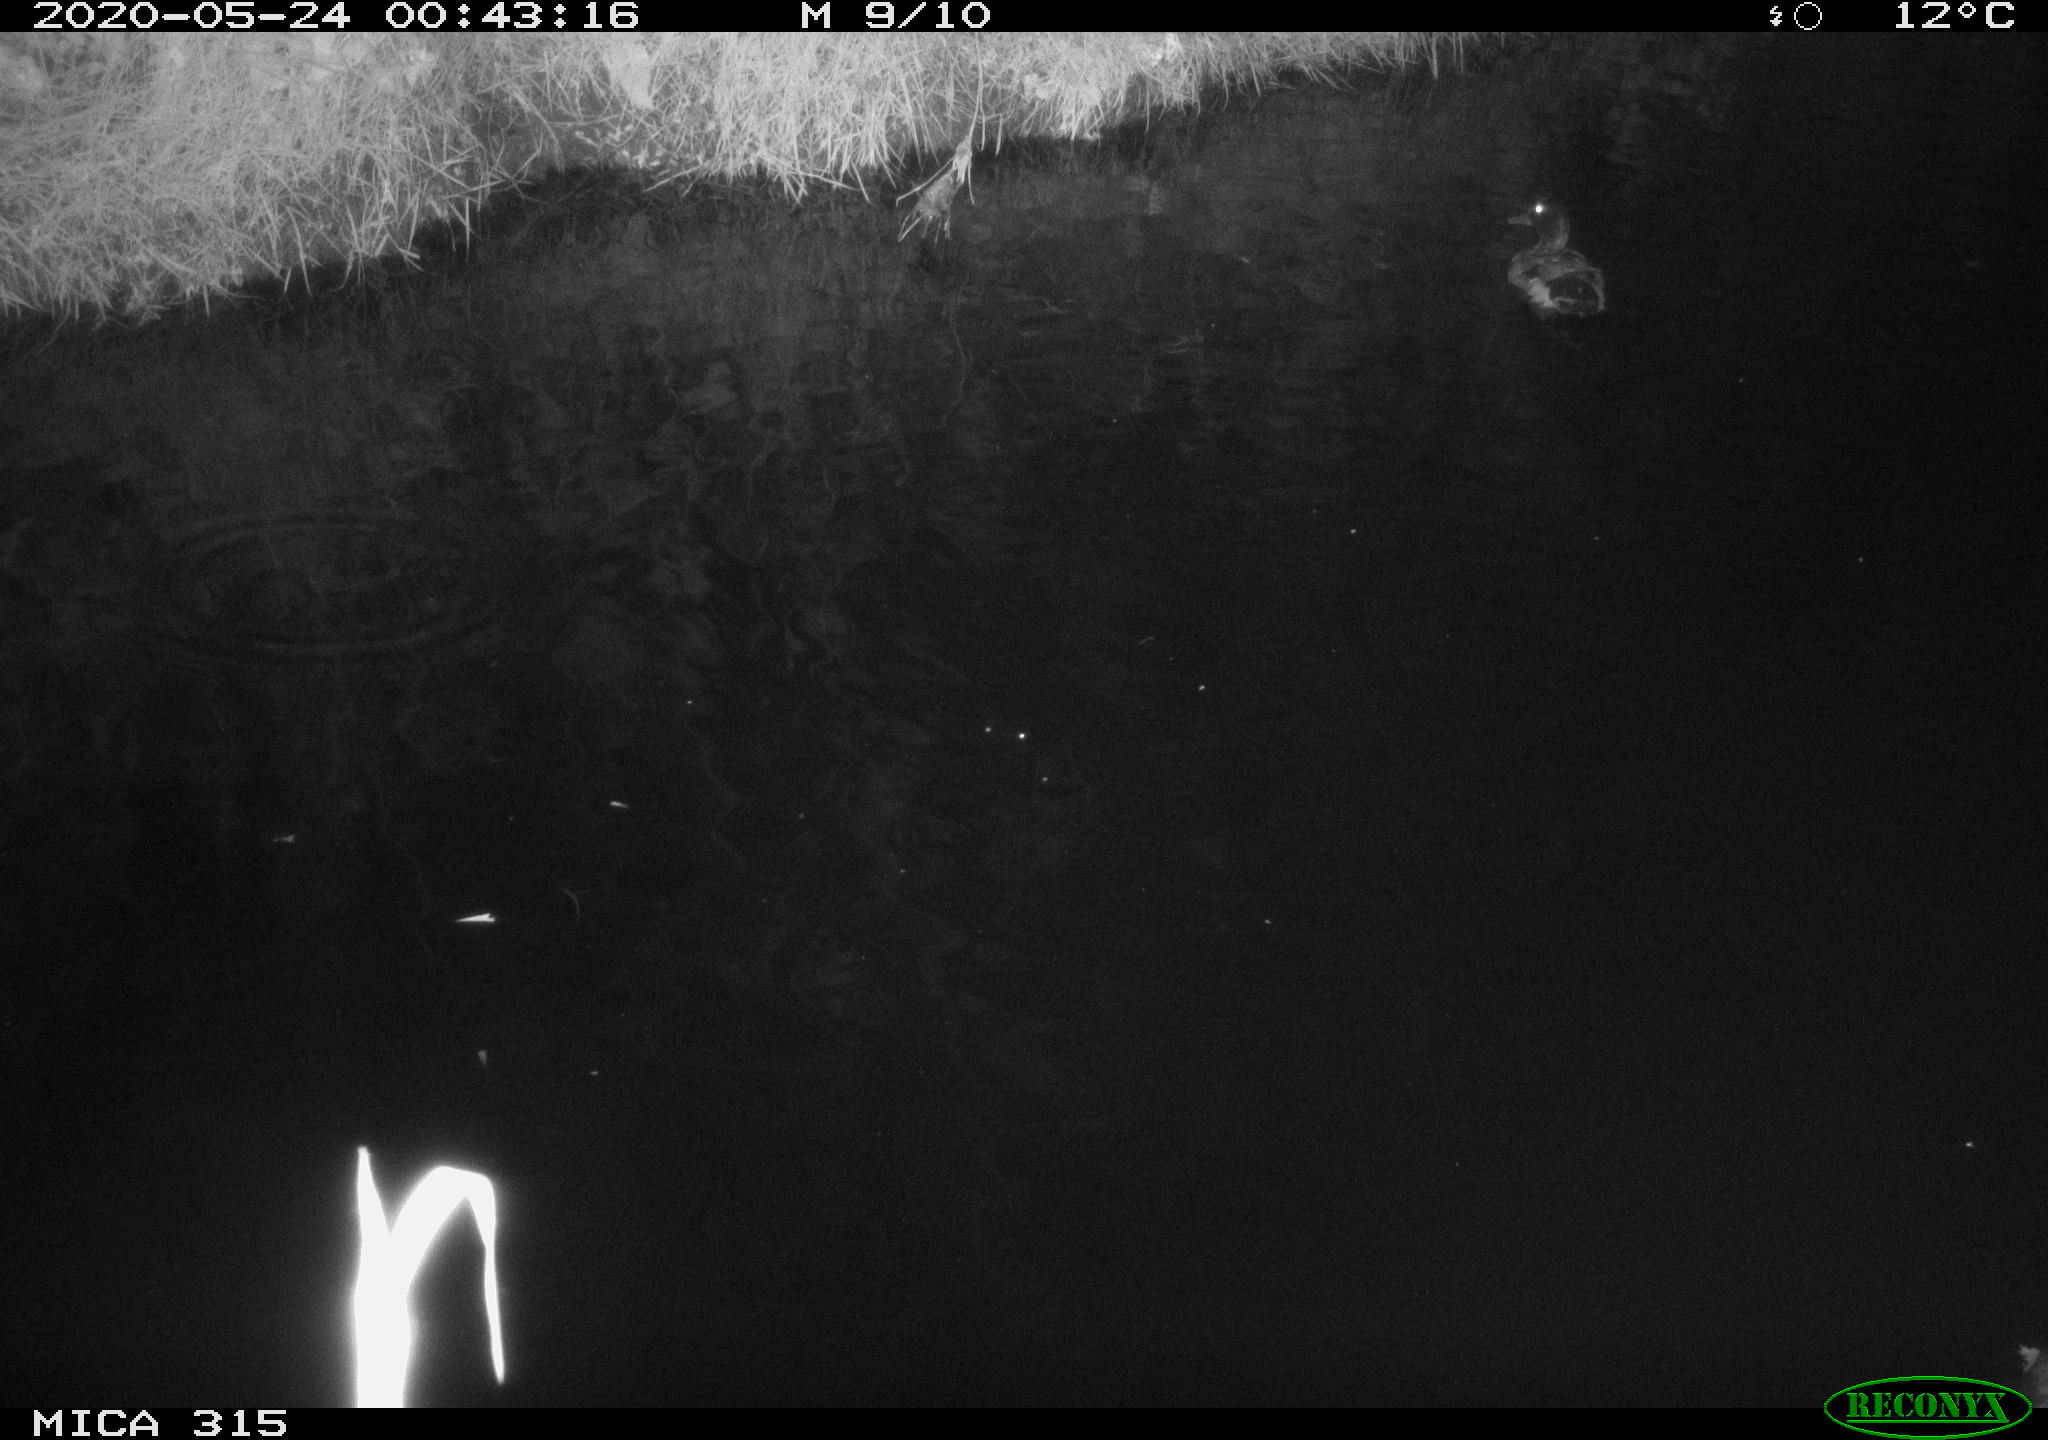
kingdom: Animalia
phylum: Chordata
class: Aves
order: Anseriformes
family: Anatidae
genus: Anas
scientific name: Anas platyrhynchos
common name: Mallard
